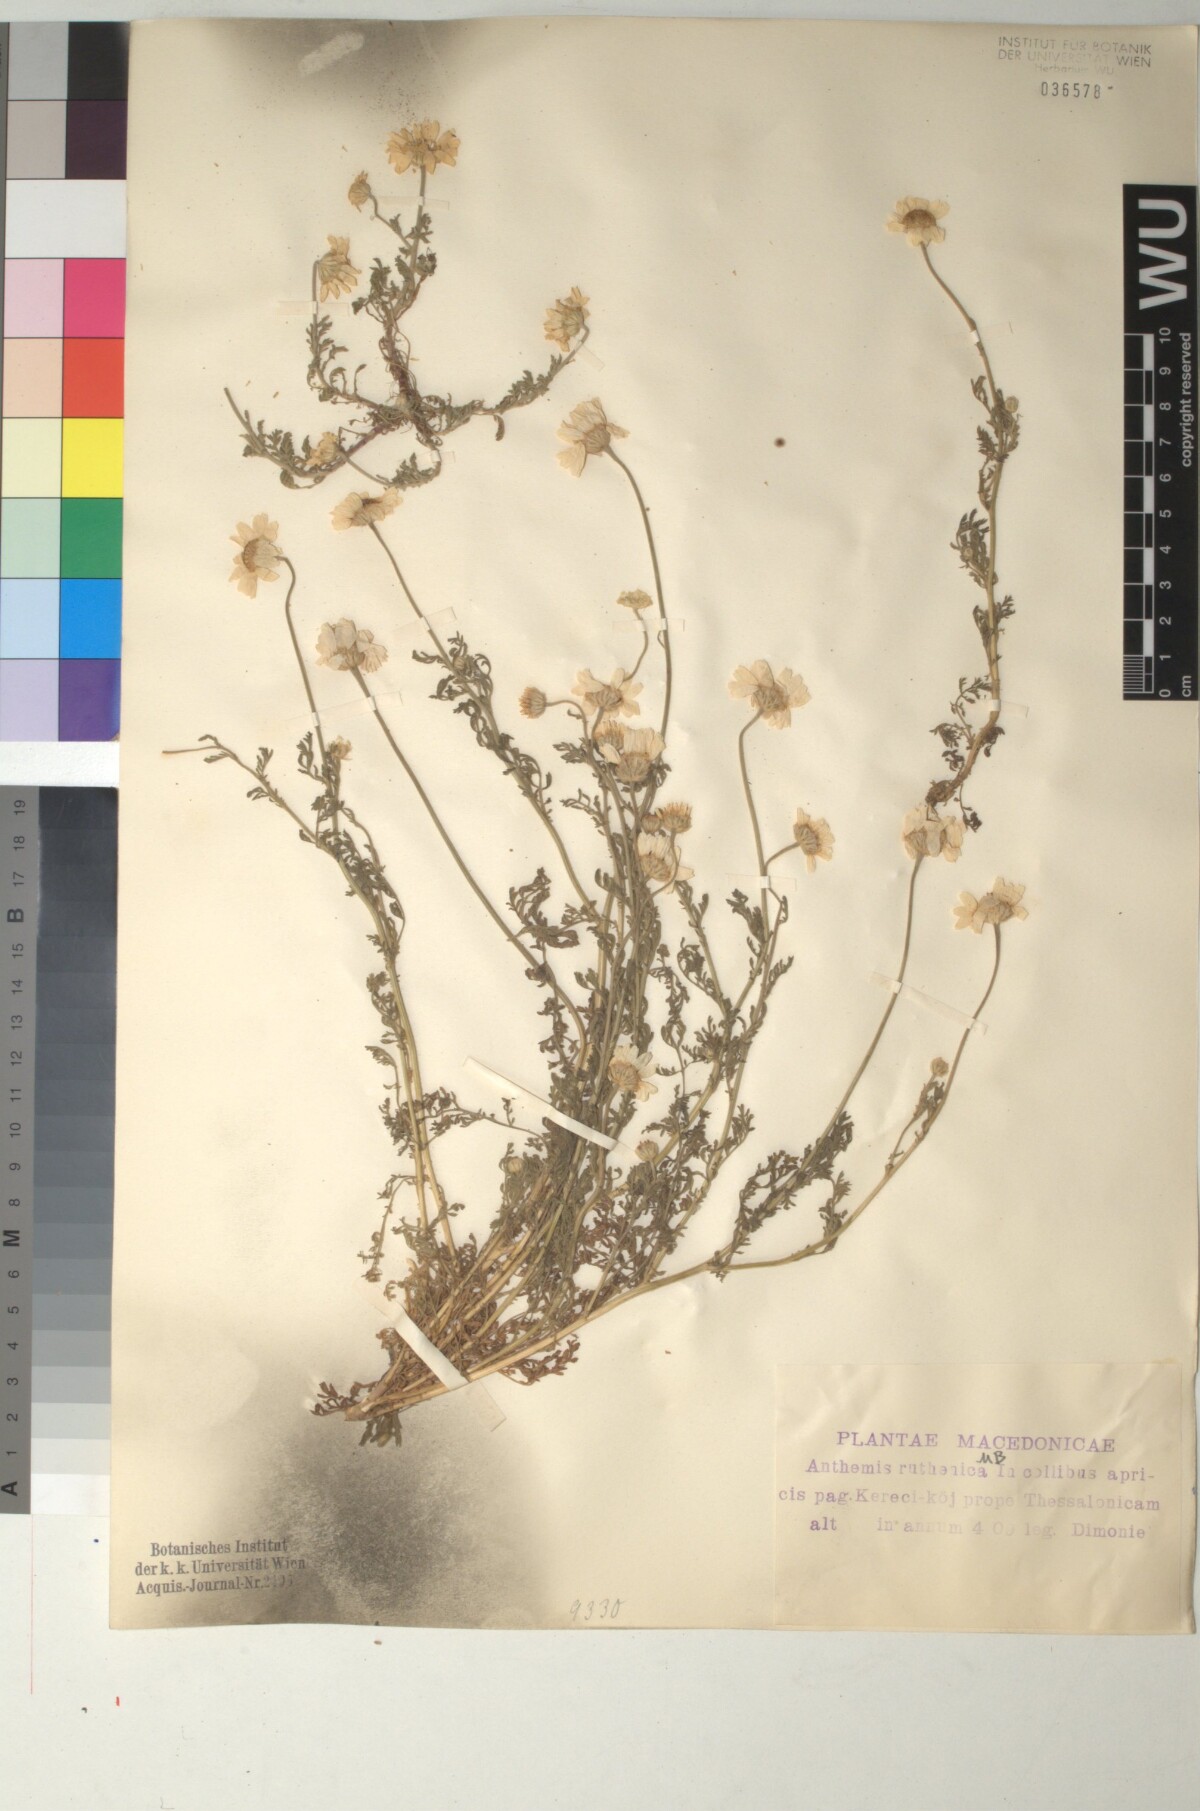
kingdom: Plantae
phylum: Tracheophyta
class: Magnoliopsida
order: Asterales
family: Asteraceae
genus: Anthemis
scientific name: Anthemis ruthenica
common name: Eastern chamomile
